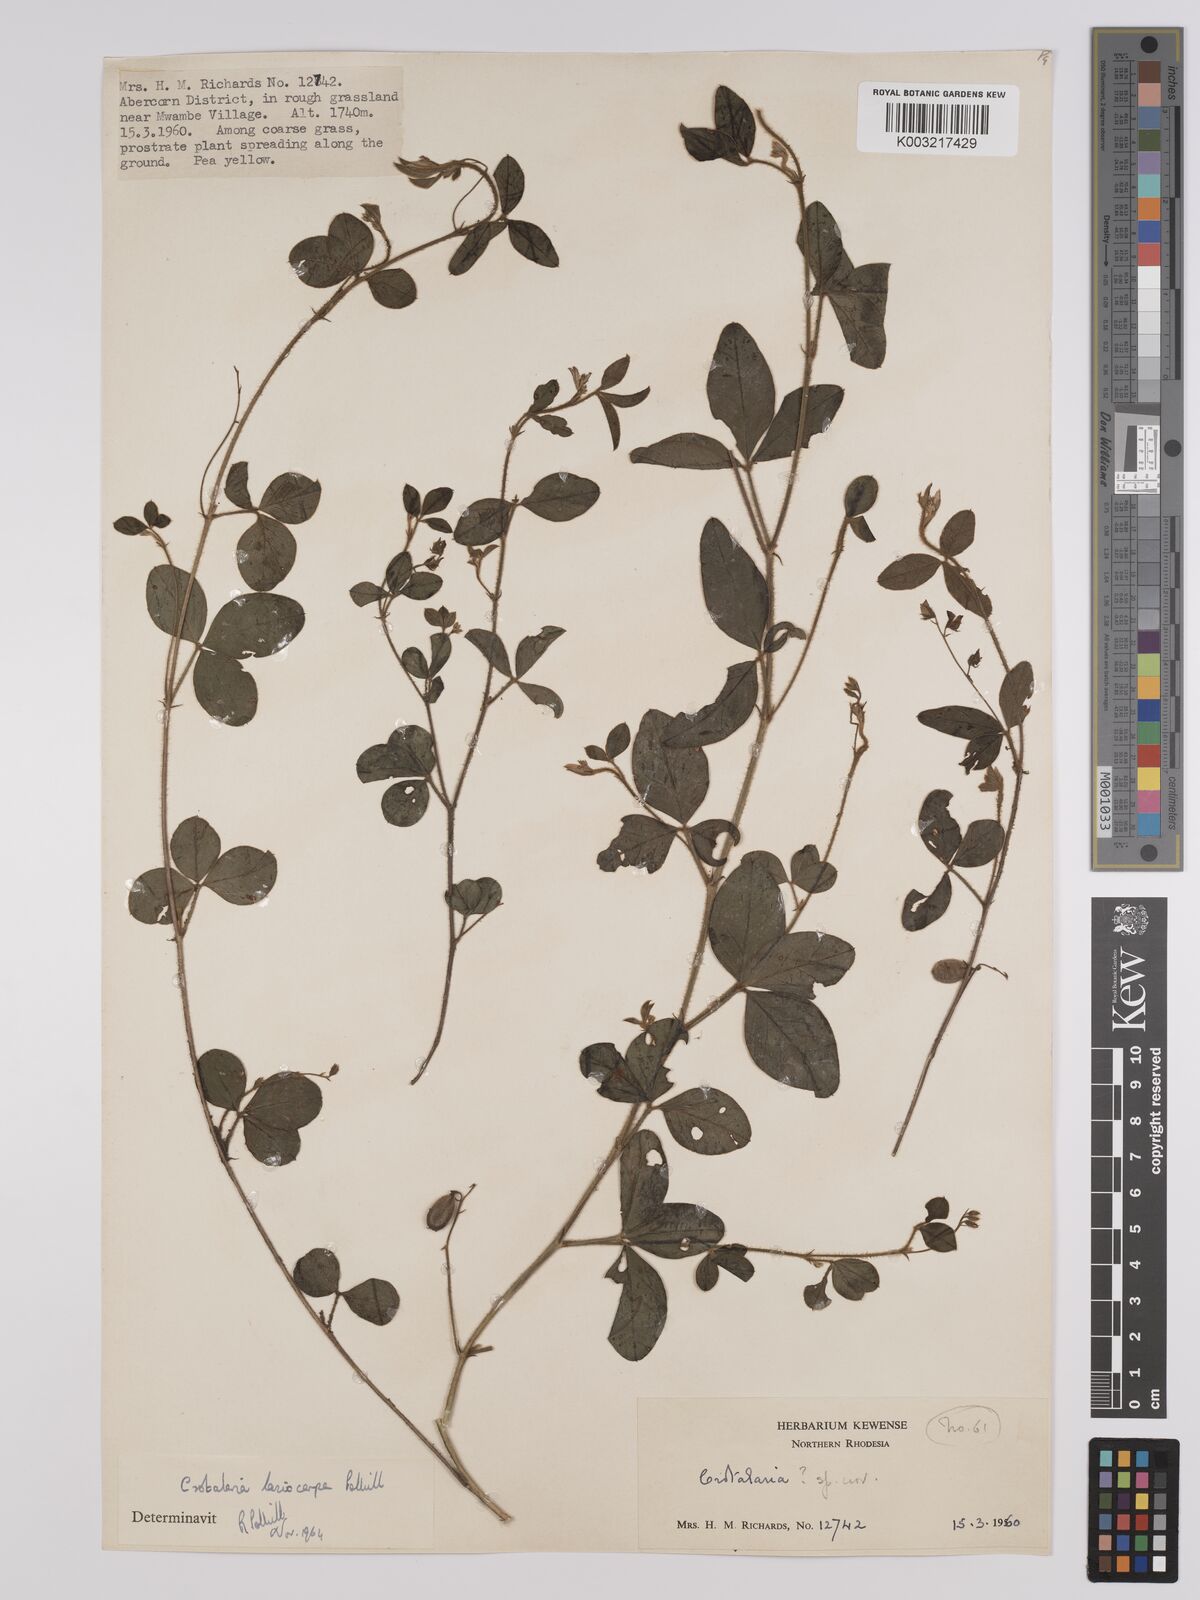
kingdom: Plantae
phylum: Tracheophyta
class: Magnoliopsida
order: Fabales
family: Fabaceae
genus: Crotalaria
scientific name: Crotalaria lasiocarpa
